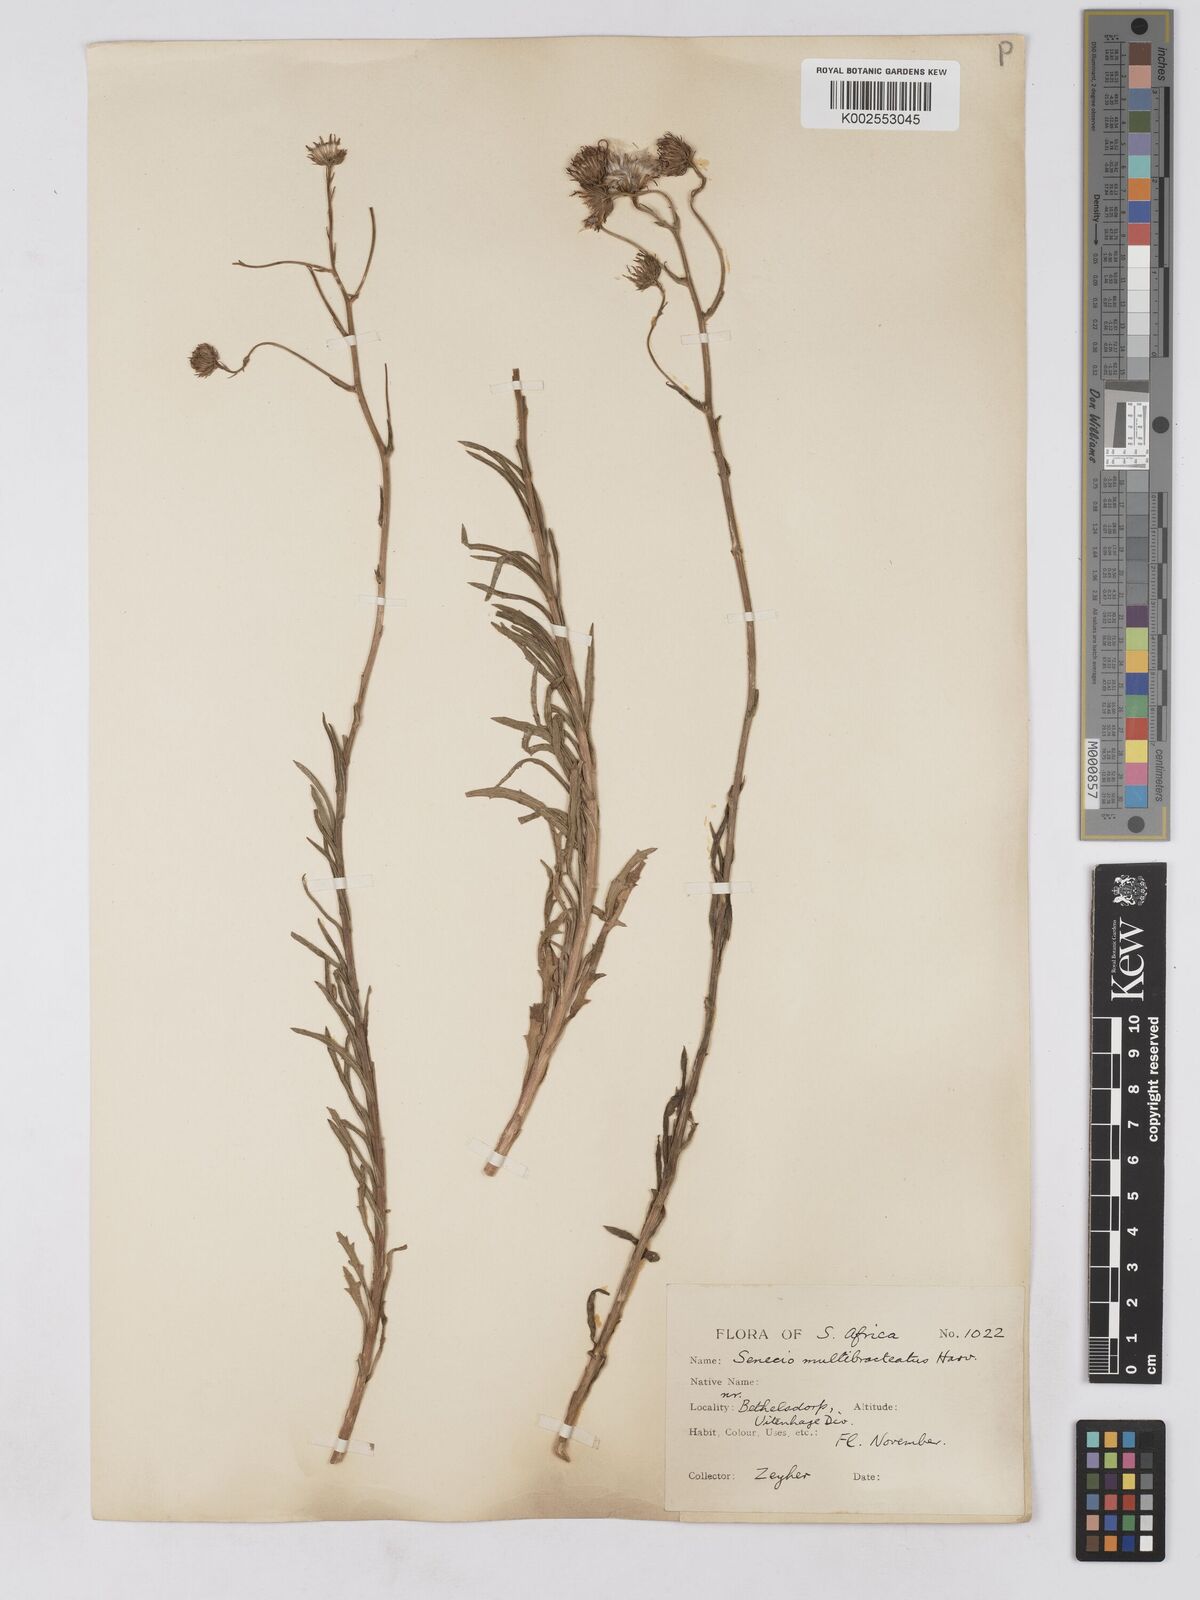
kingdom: Plantae
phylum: Tracheophyta
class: Magnoliopsida
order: Asterales
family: Asteraceae
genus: Senecio
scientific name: Senecio multibracteatus
